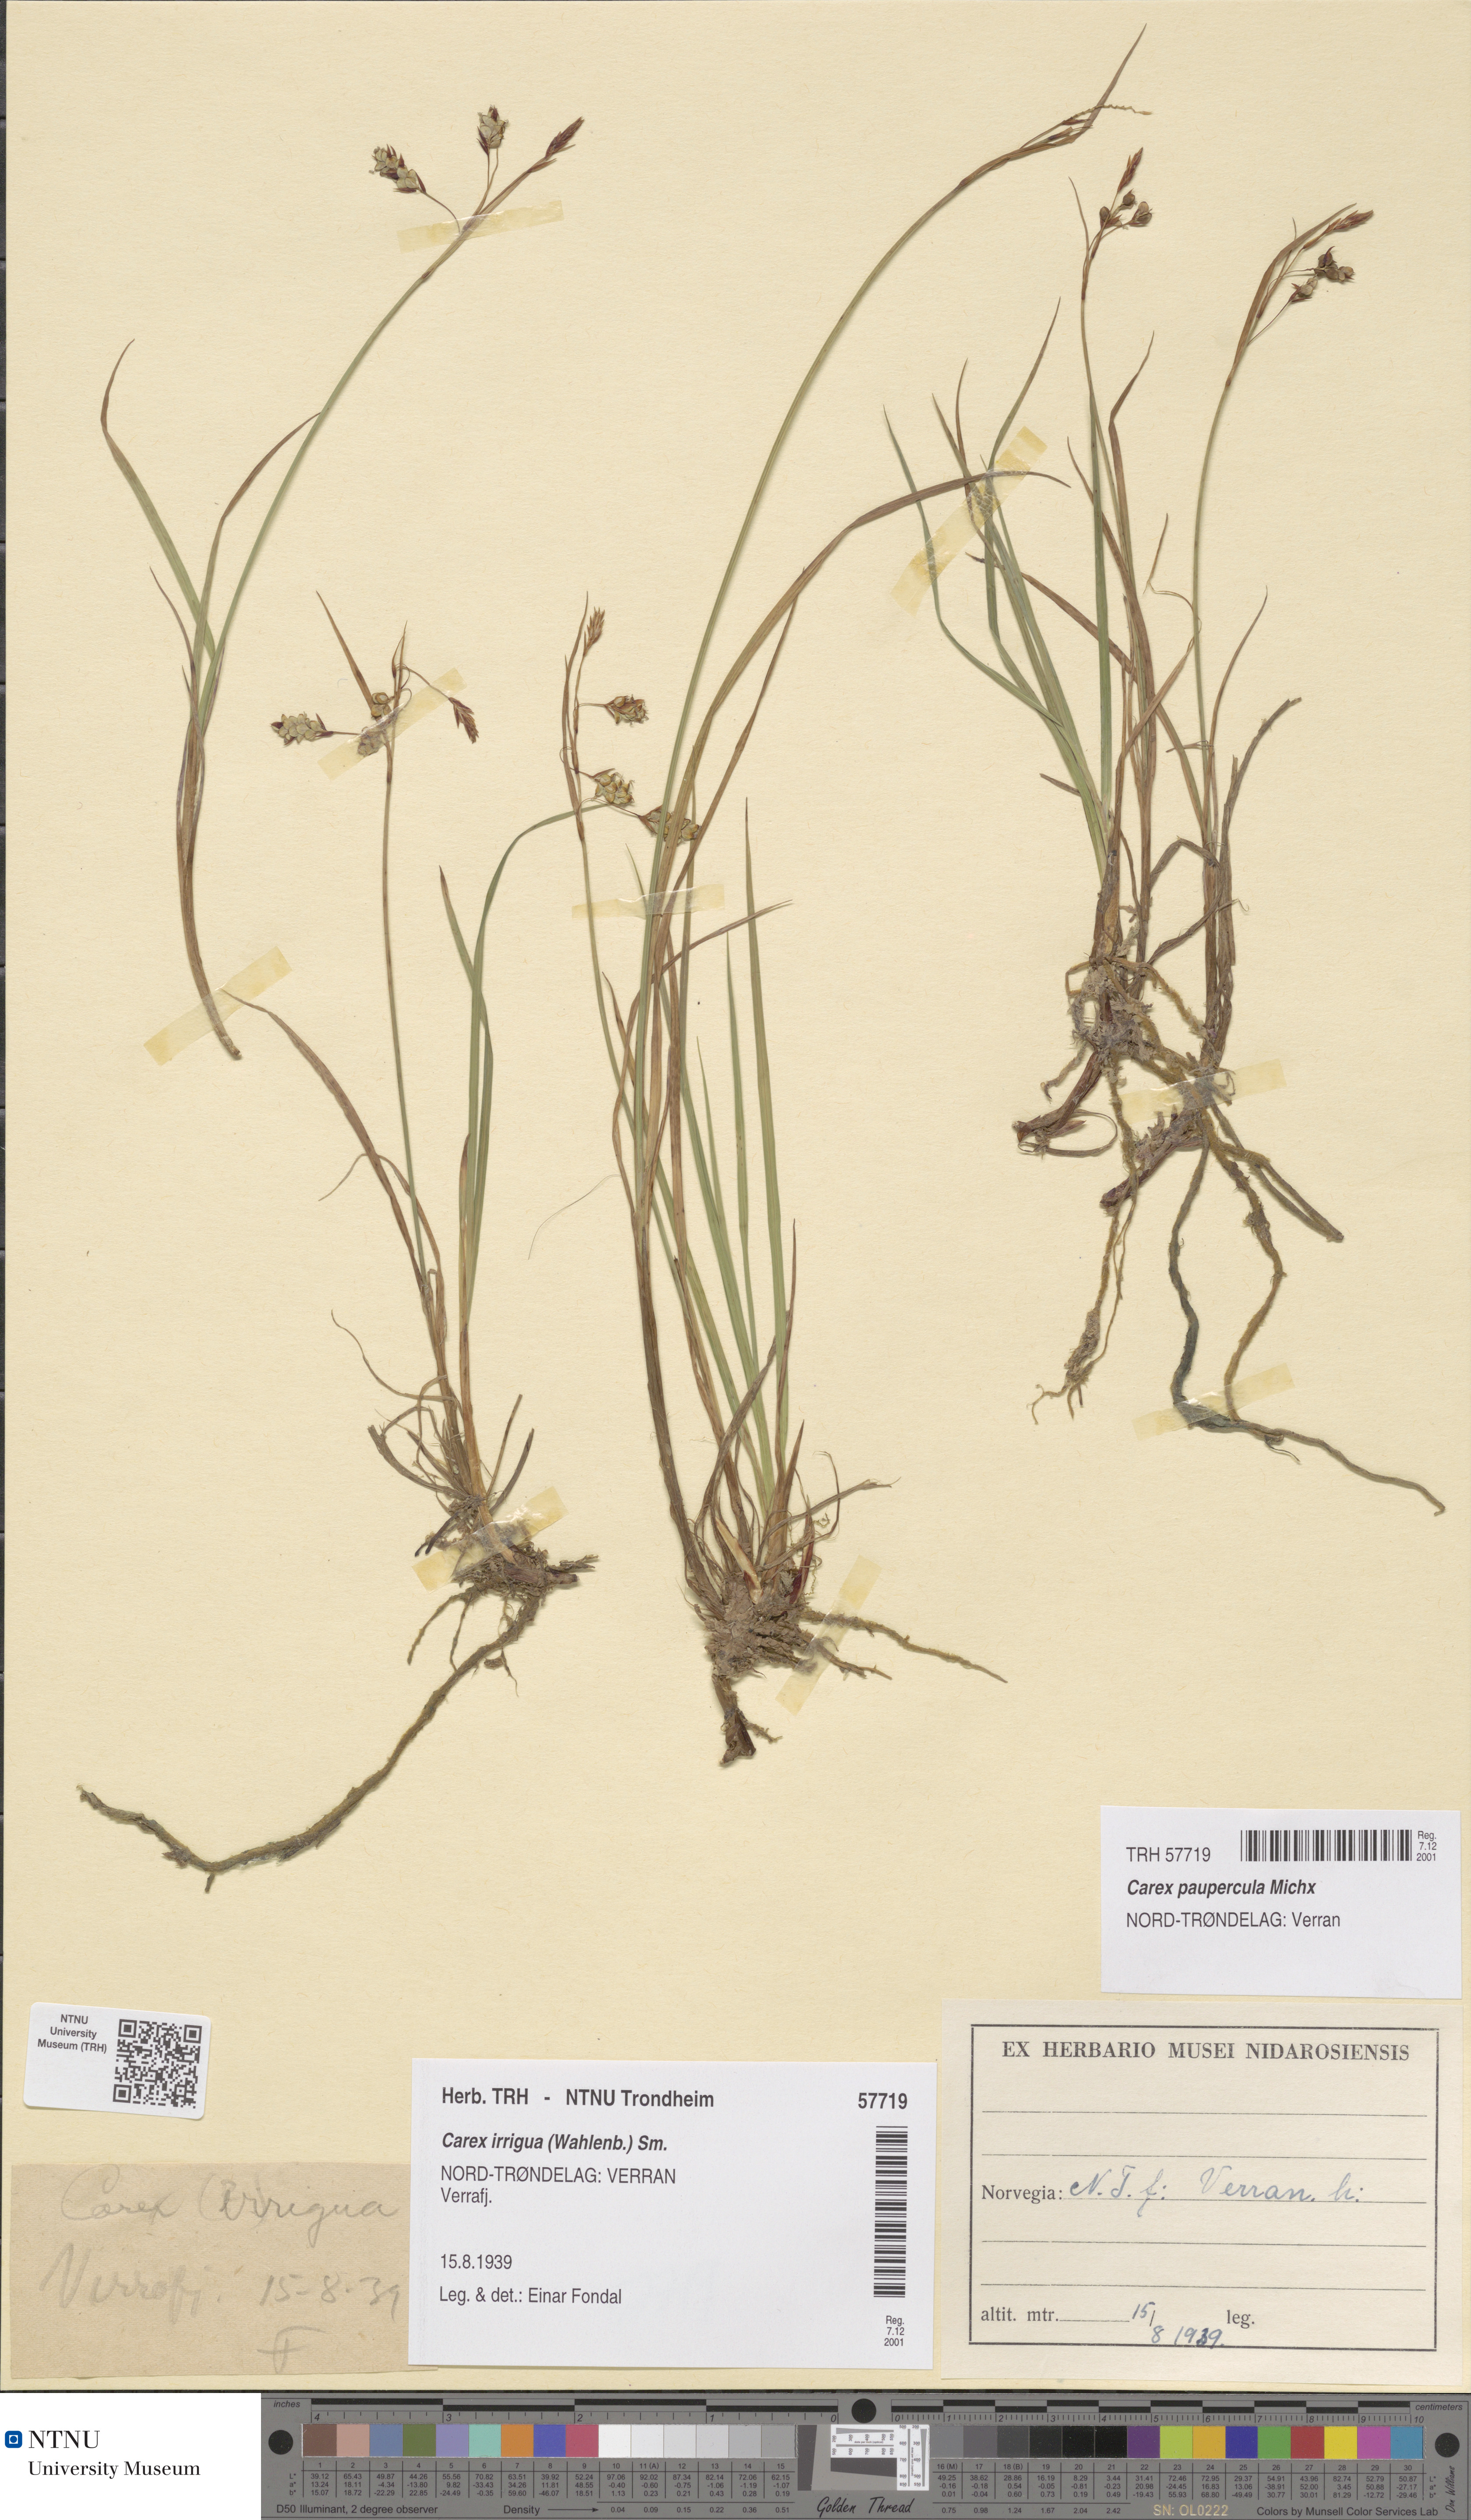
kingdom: Plantae
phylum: Tracheophyta
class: Liliopsida
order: Poales
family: Cyperaceae
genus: Carex
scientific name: Carex magellanica
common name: Bog sedge
